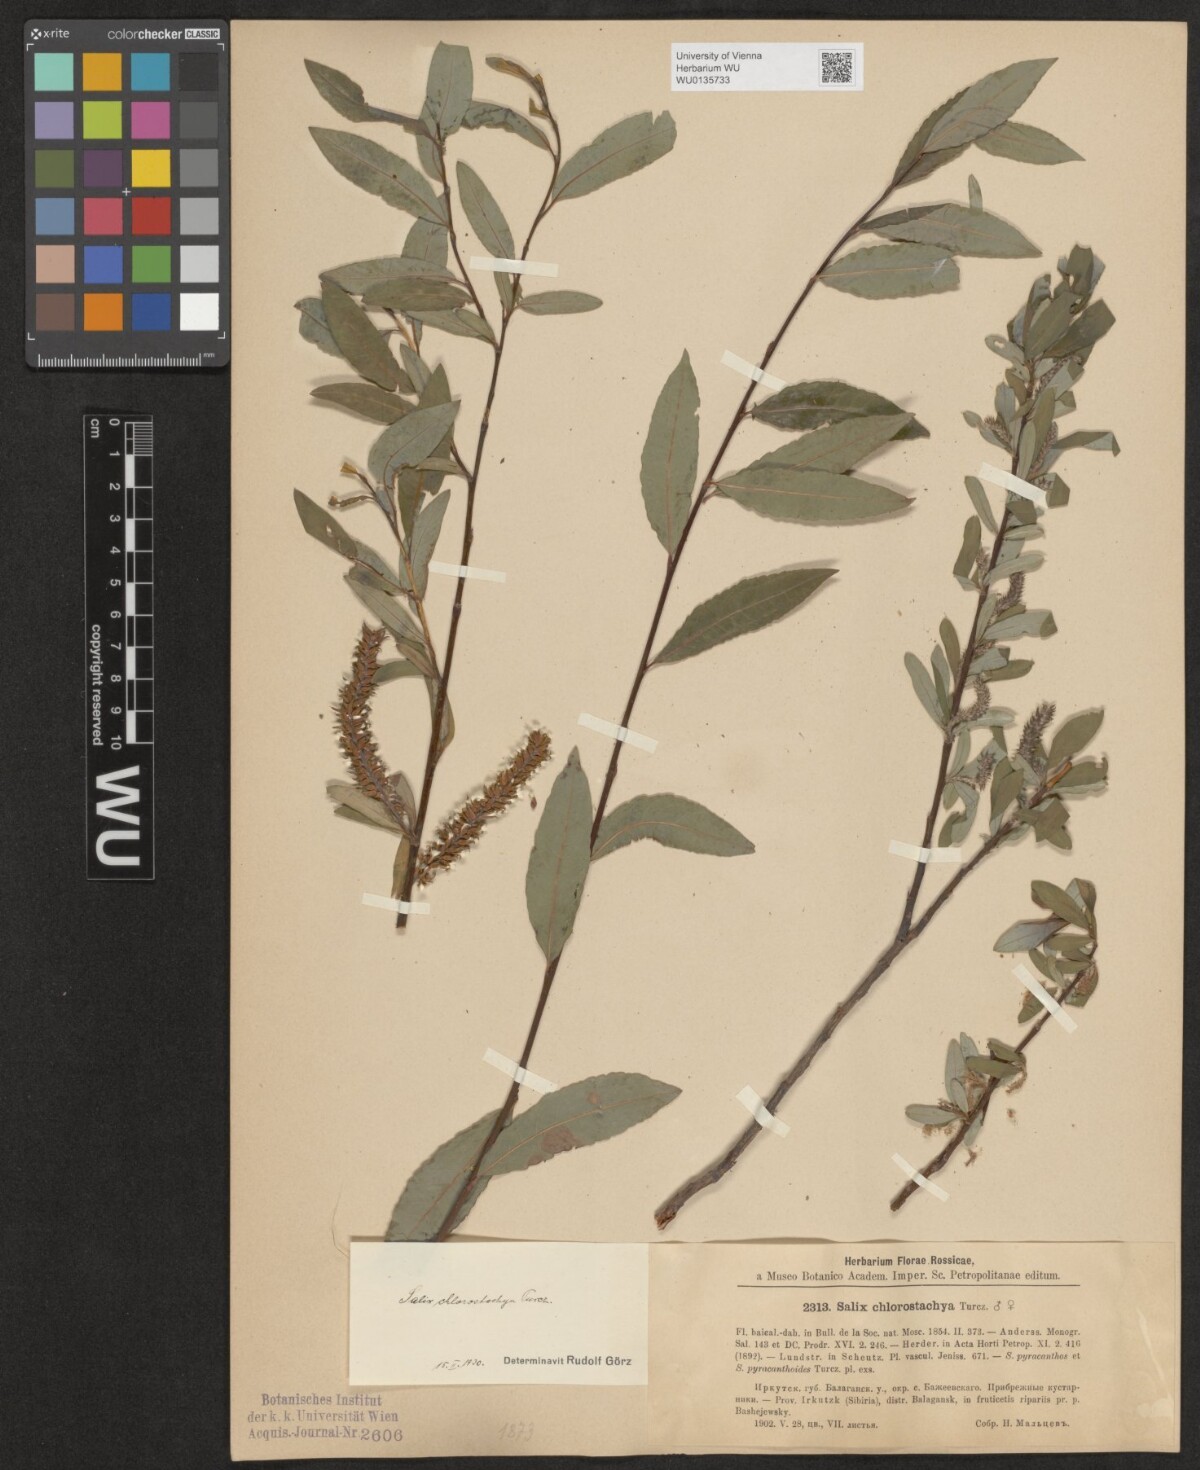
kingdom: Plantae
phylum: Tracheophyta
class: Magnoliopsida
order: Malpighiales
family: Salicaceae
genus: Salix
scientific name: Salix rhamnifolia
